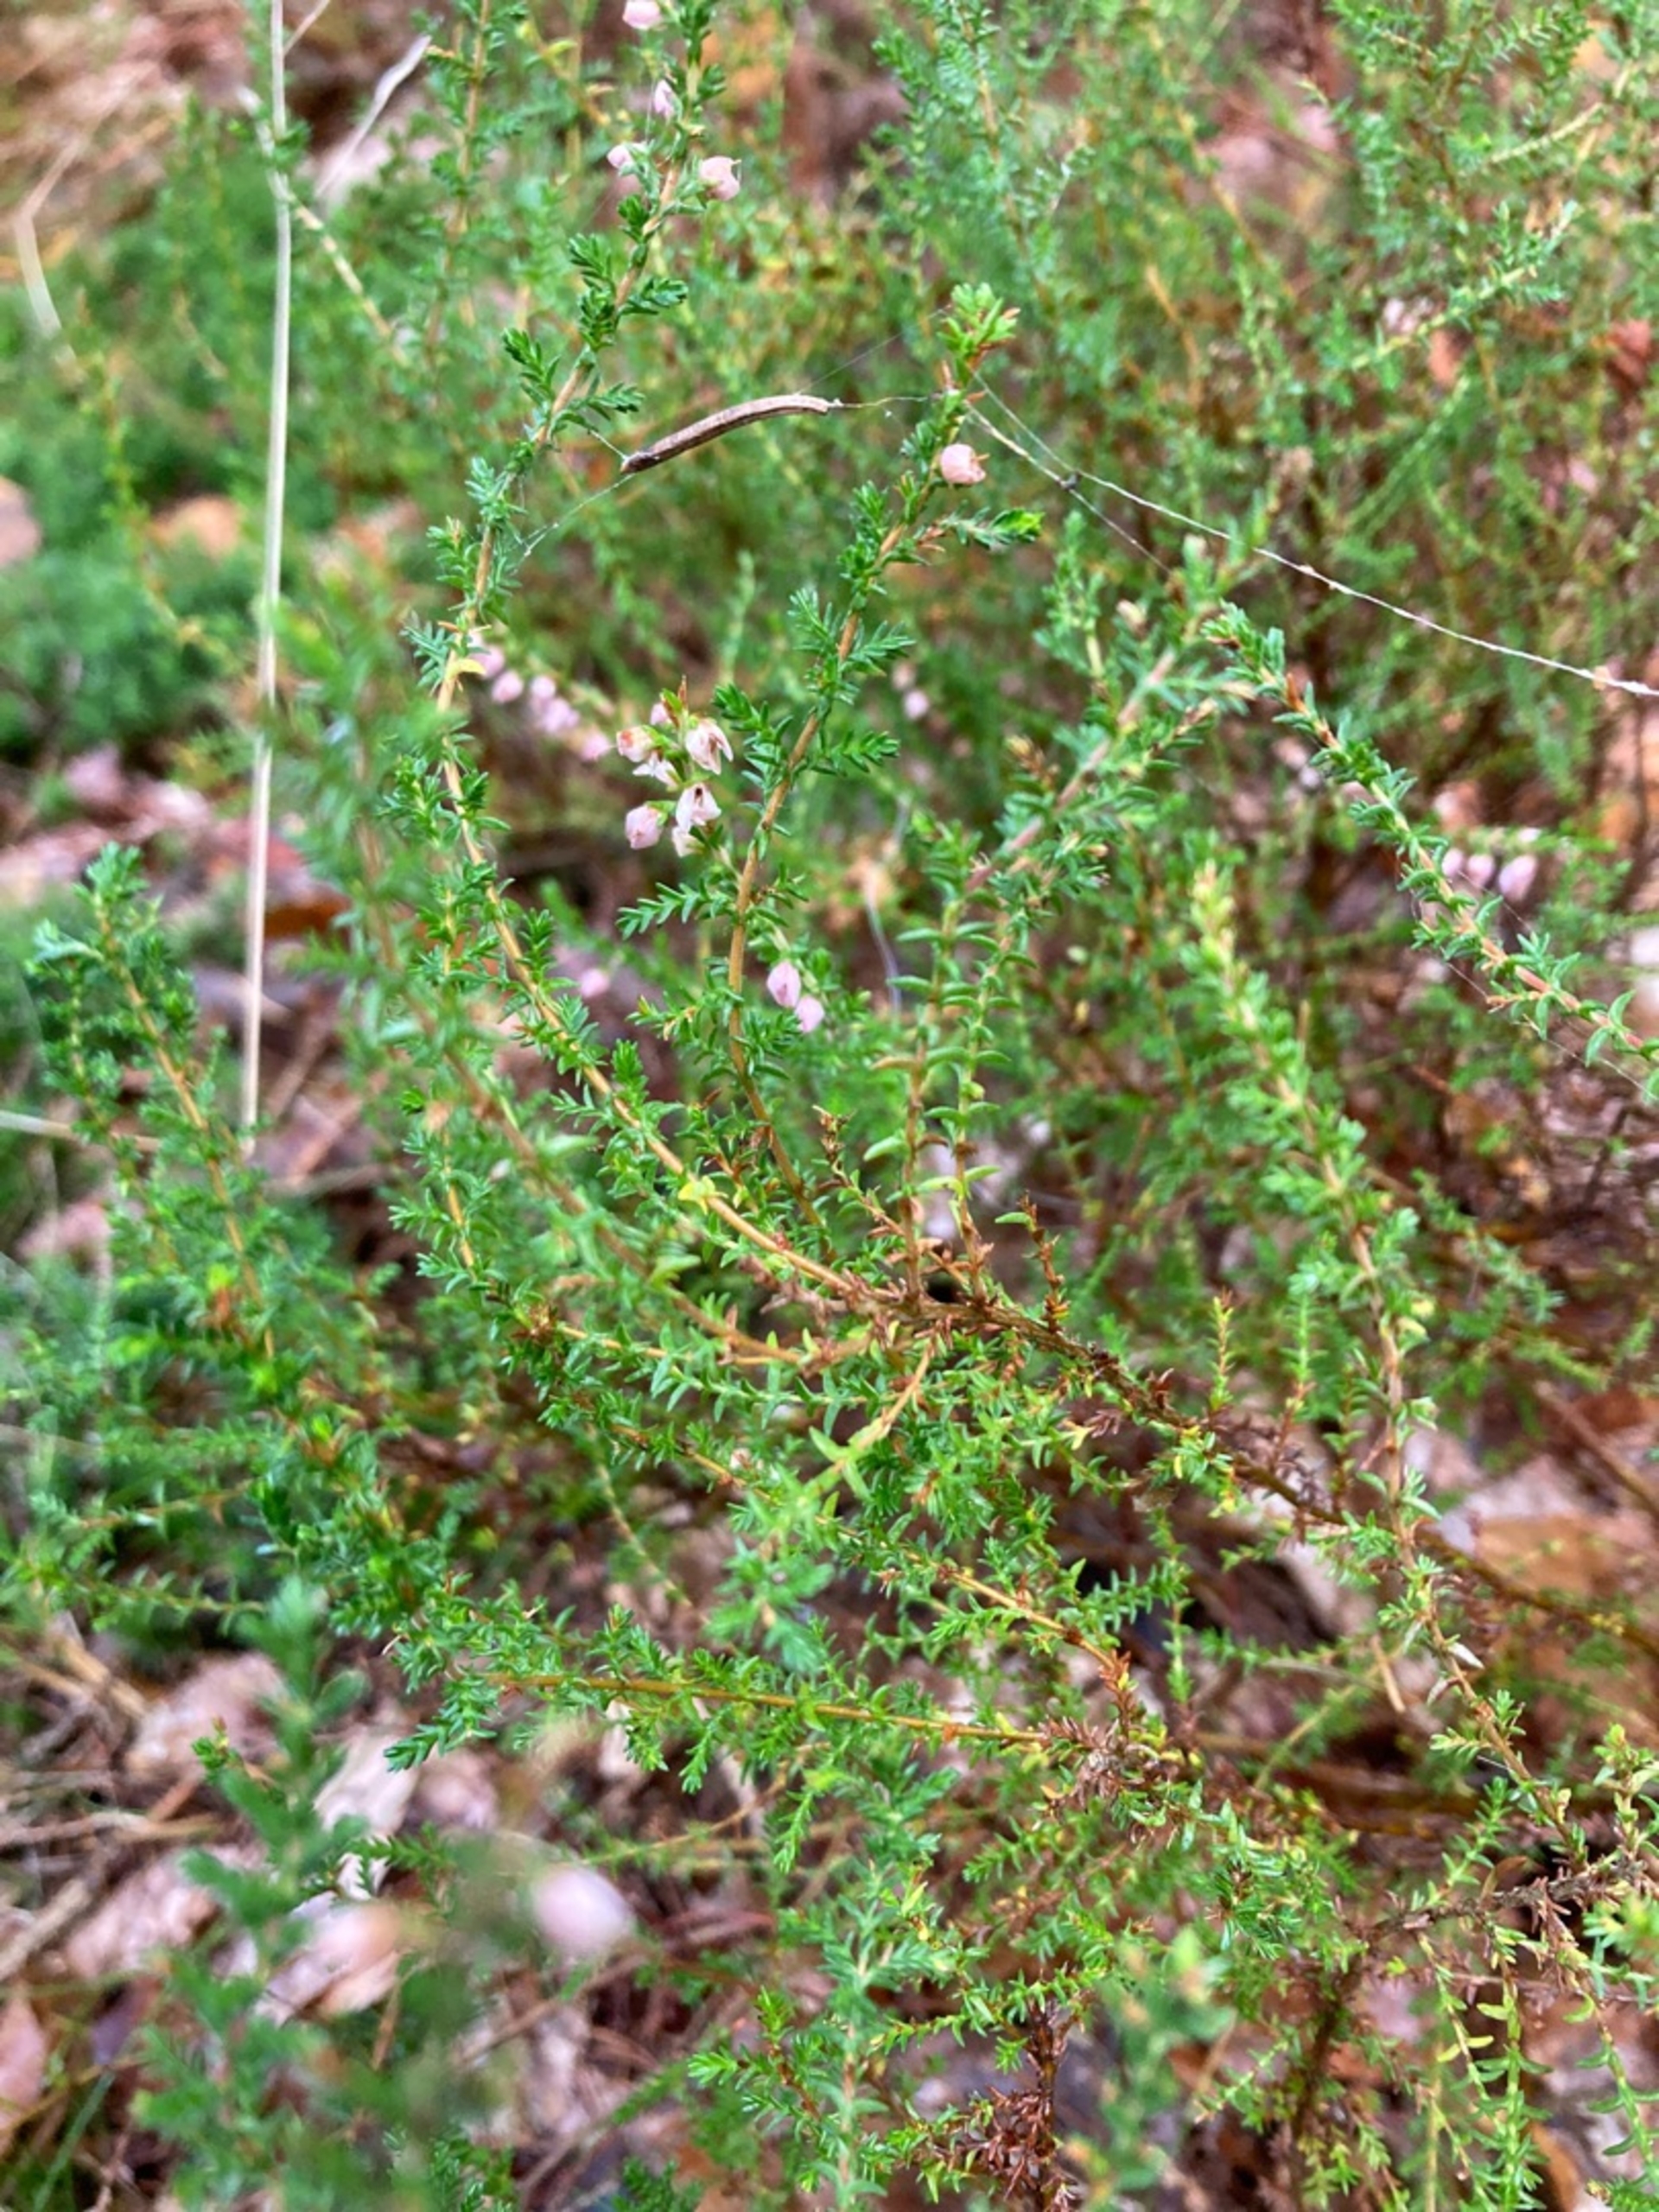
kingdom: Plantae
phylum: Tracheophyta
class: Magnoliopsida
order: Ericales
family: Ericaceae
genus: Calluna
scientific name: Calluna vulgaris
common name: Hedelyng
